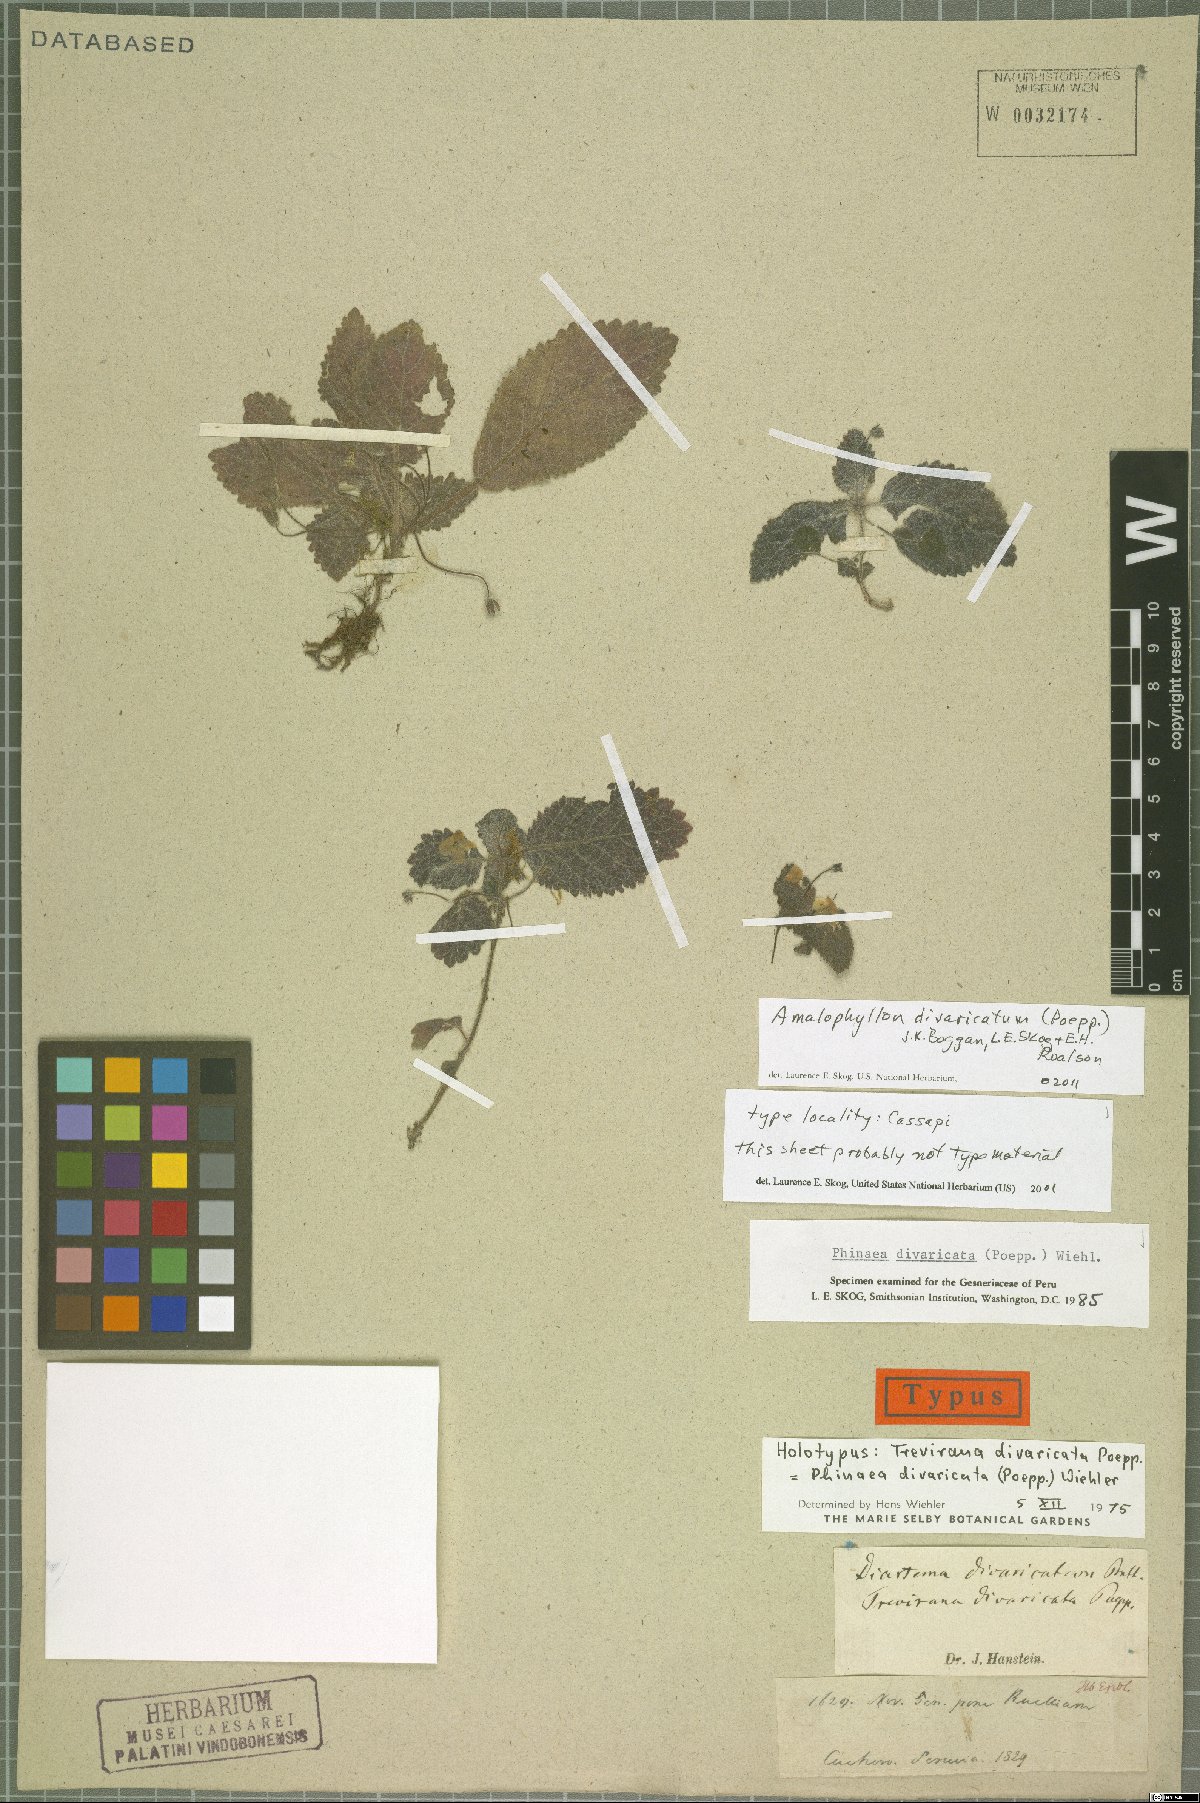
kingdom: Plantae
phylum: Tracheophyta
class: Magnoliopsida
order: Lamiales
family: Gesneriaceae
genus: Amalophyllon
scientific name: Amalophyllon divaricatum
